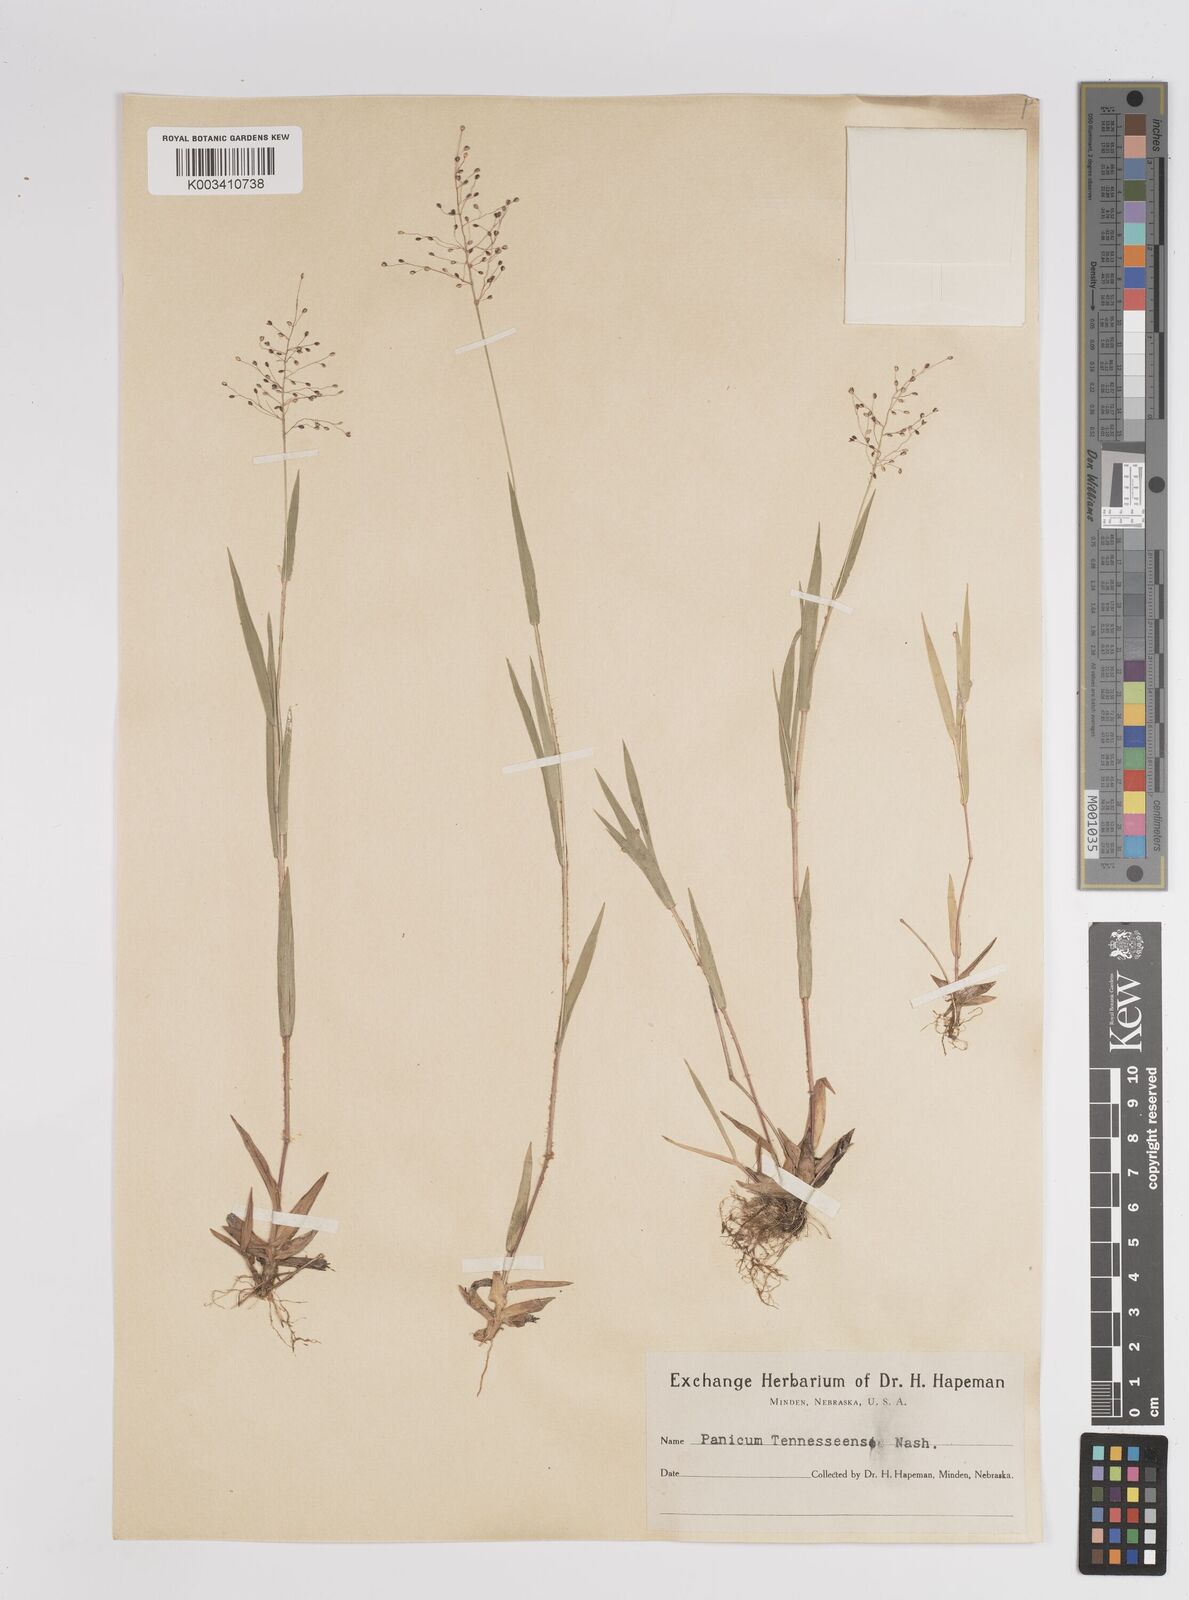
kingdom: Plantae
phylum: Tracheophyta
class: Liliopsida
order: Poales
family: Poaceae
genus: Dichanthelium
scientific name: Dichanthelium acuminatum
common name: Hairy panic grass
